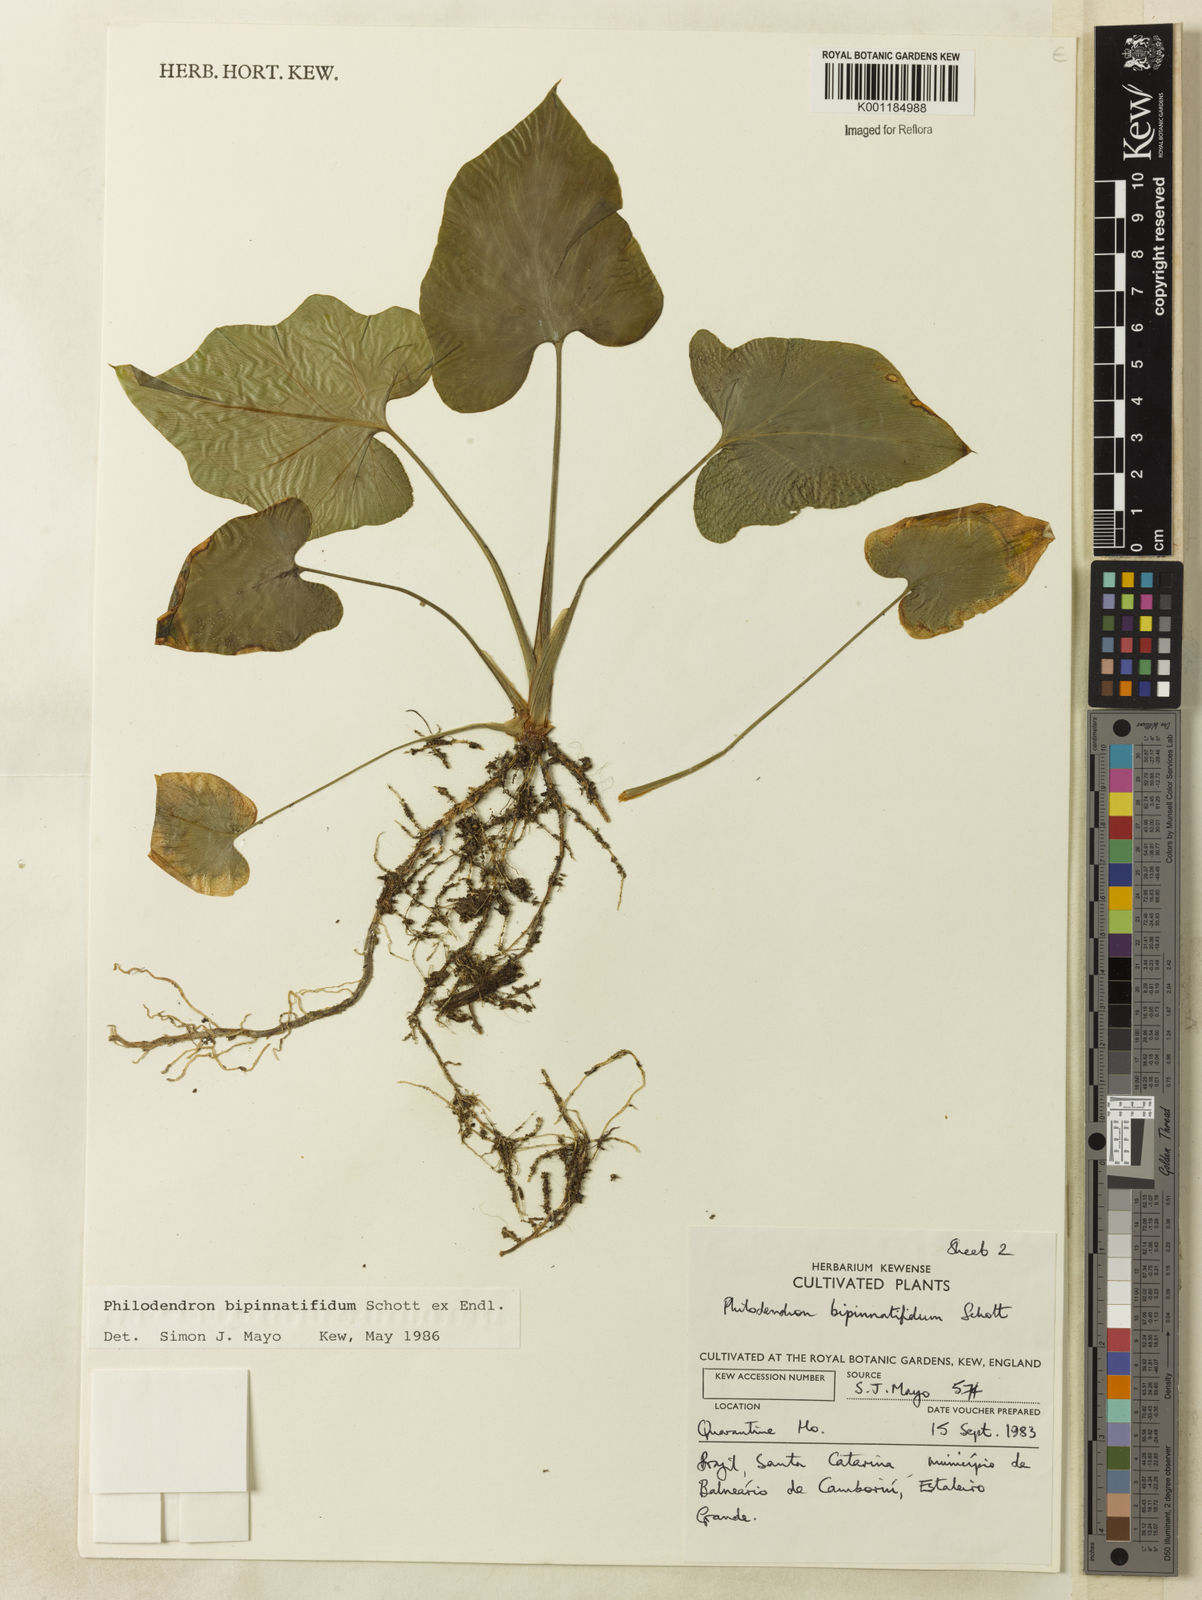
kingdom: Plantae
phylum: Tracheophyta
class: Liliopsida
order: Alismatales
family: Araceae
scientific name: Araceae
